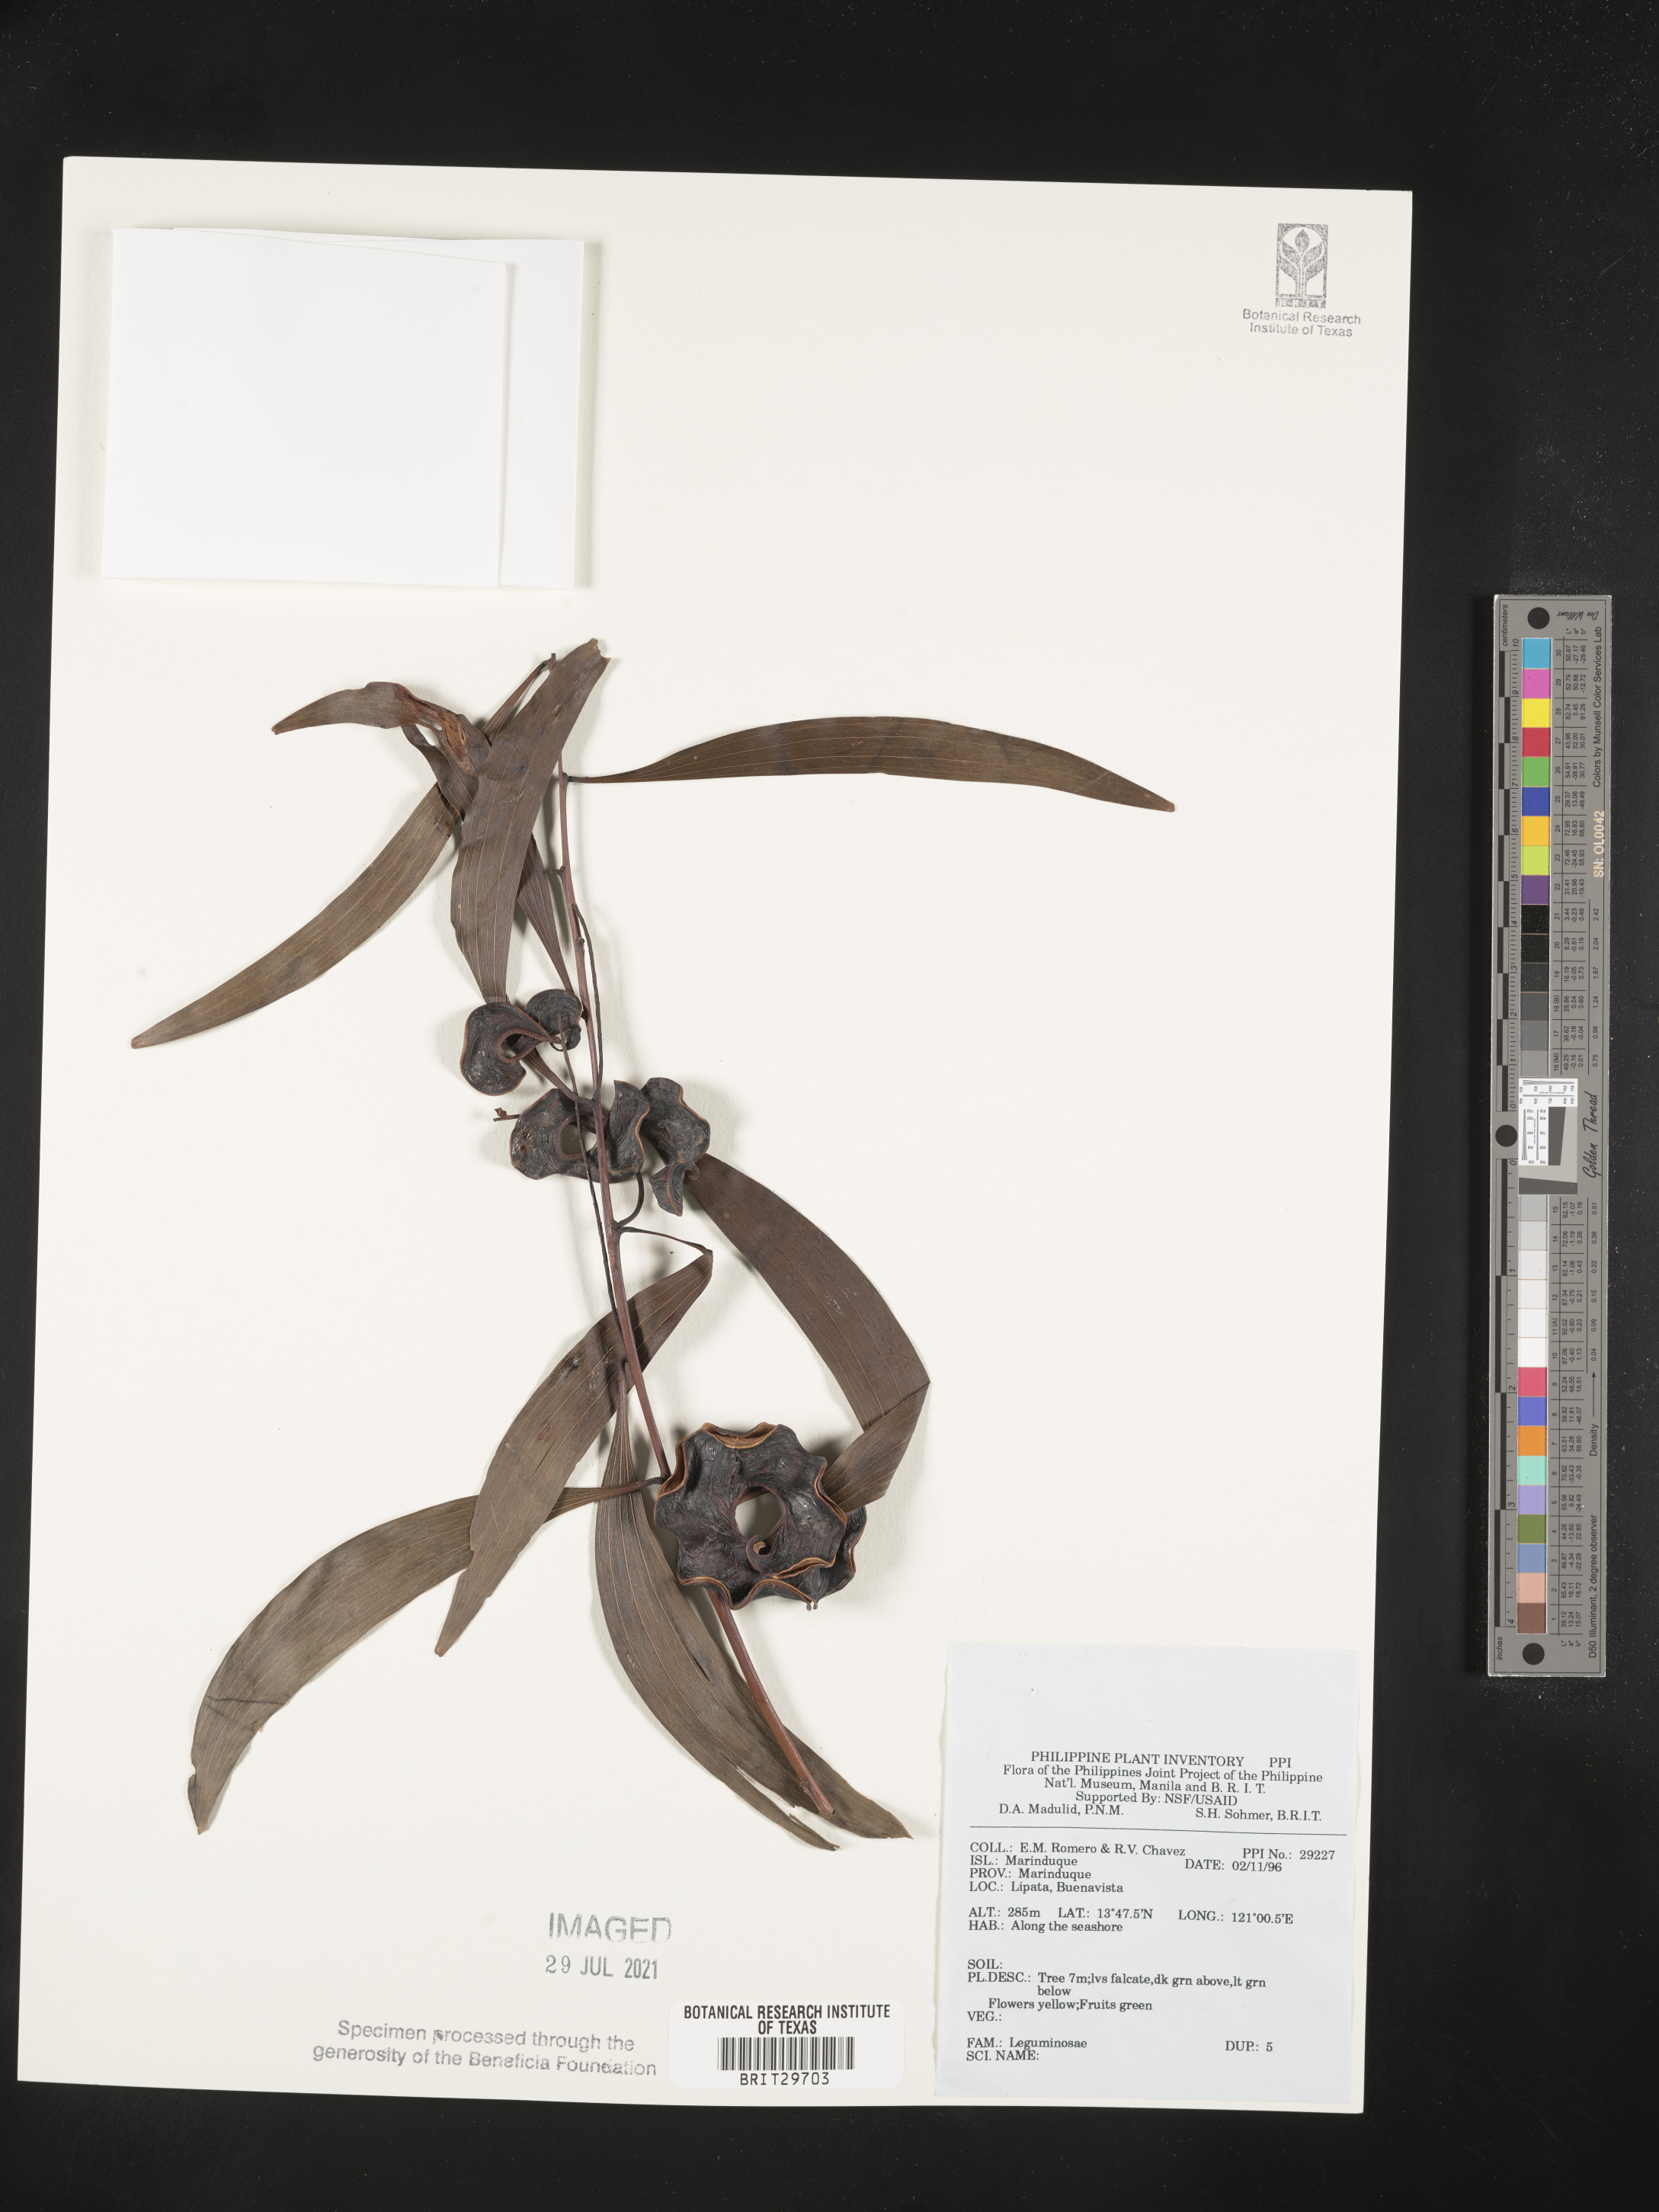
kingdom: Plantae
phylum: Tracheophyta
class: Magnoliopsida
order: Fabales
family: Fabaceae
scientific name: Fabaceae
